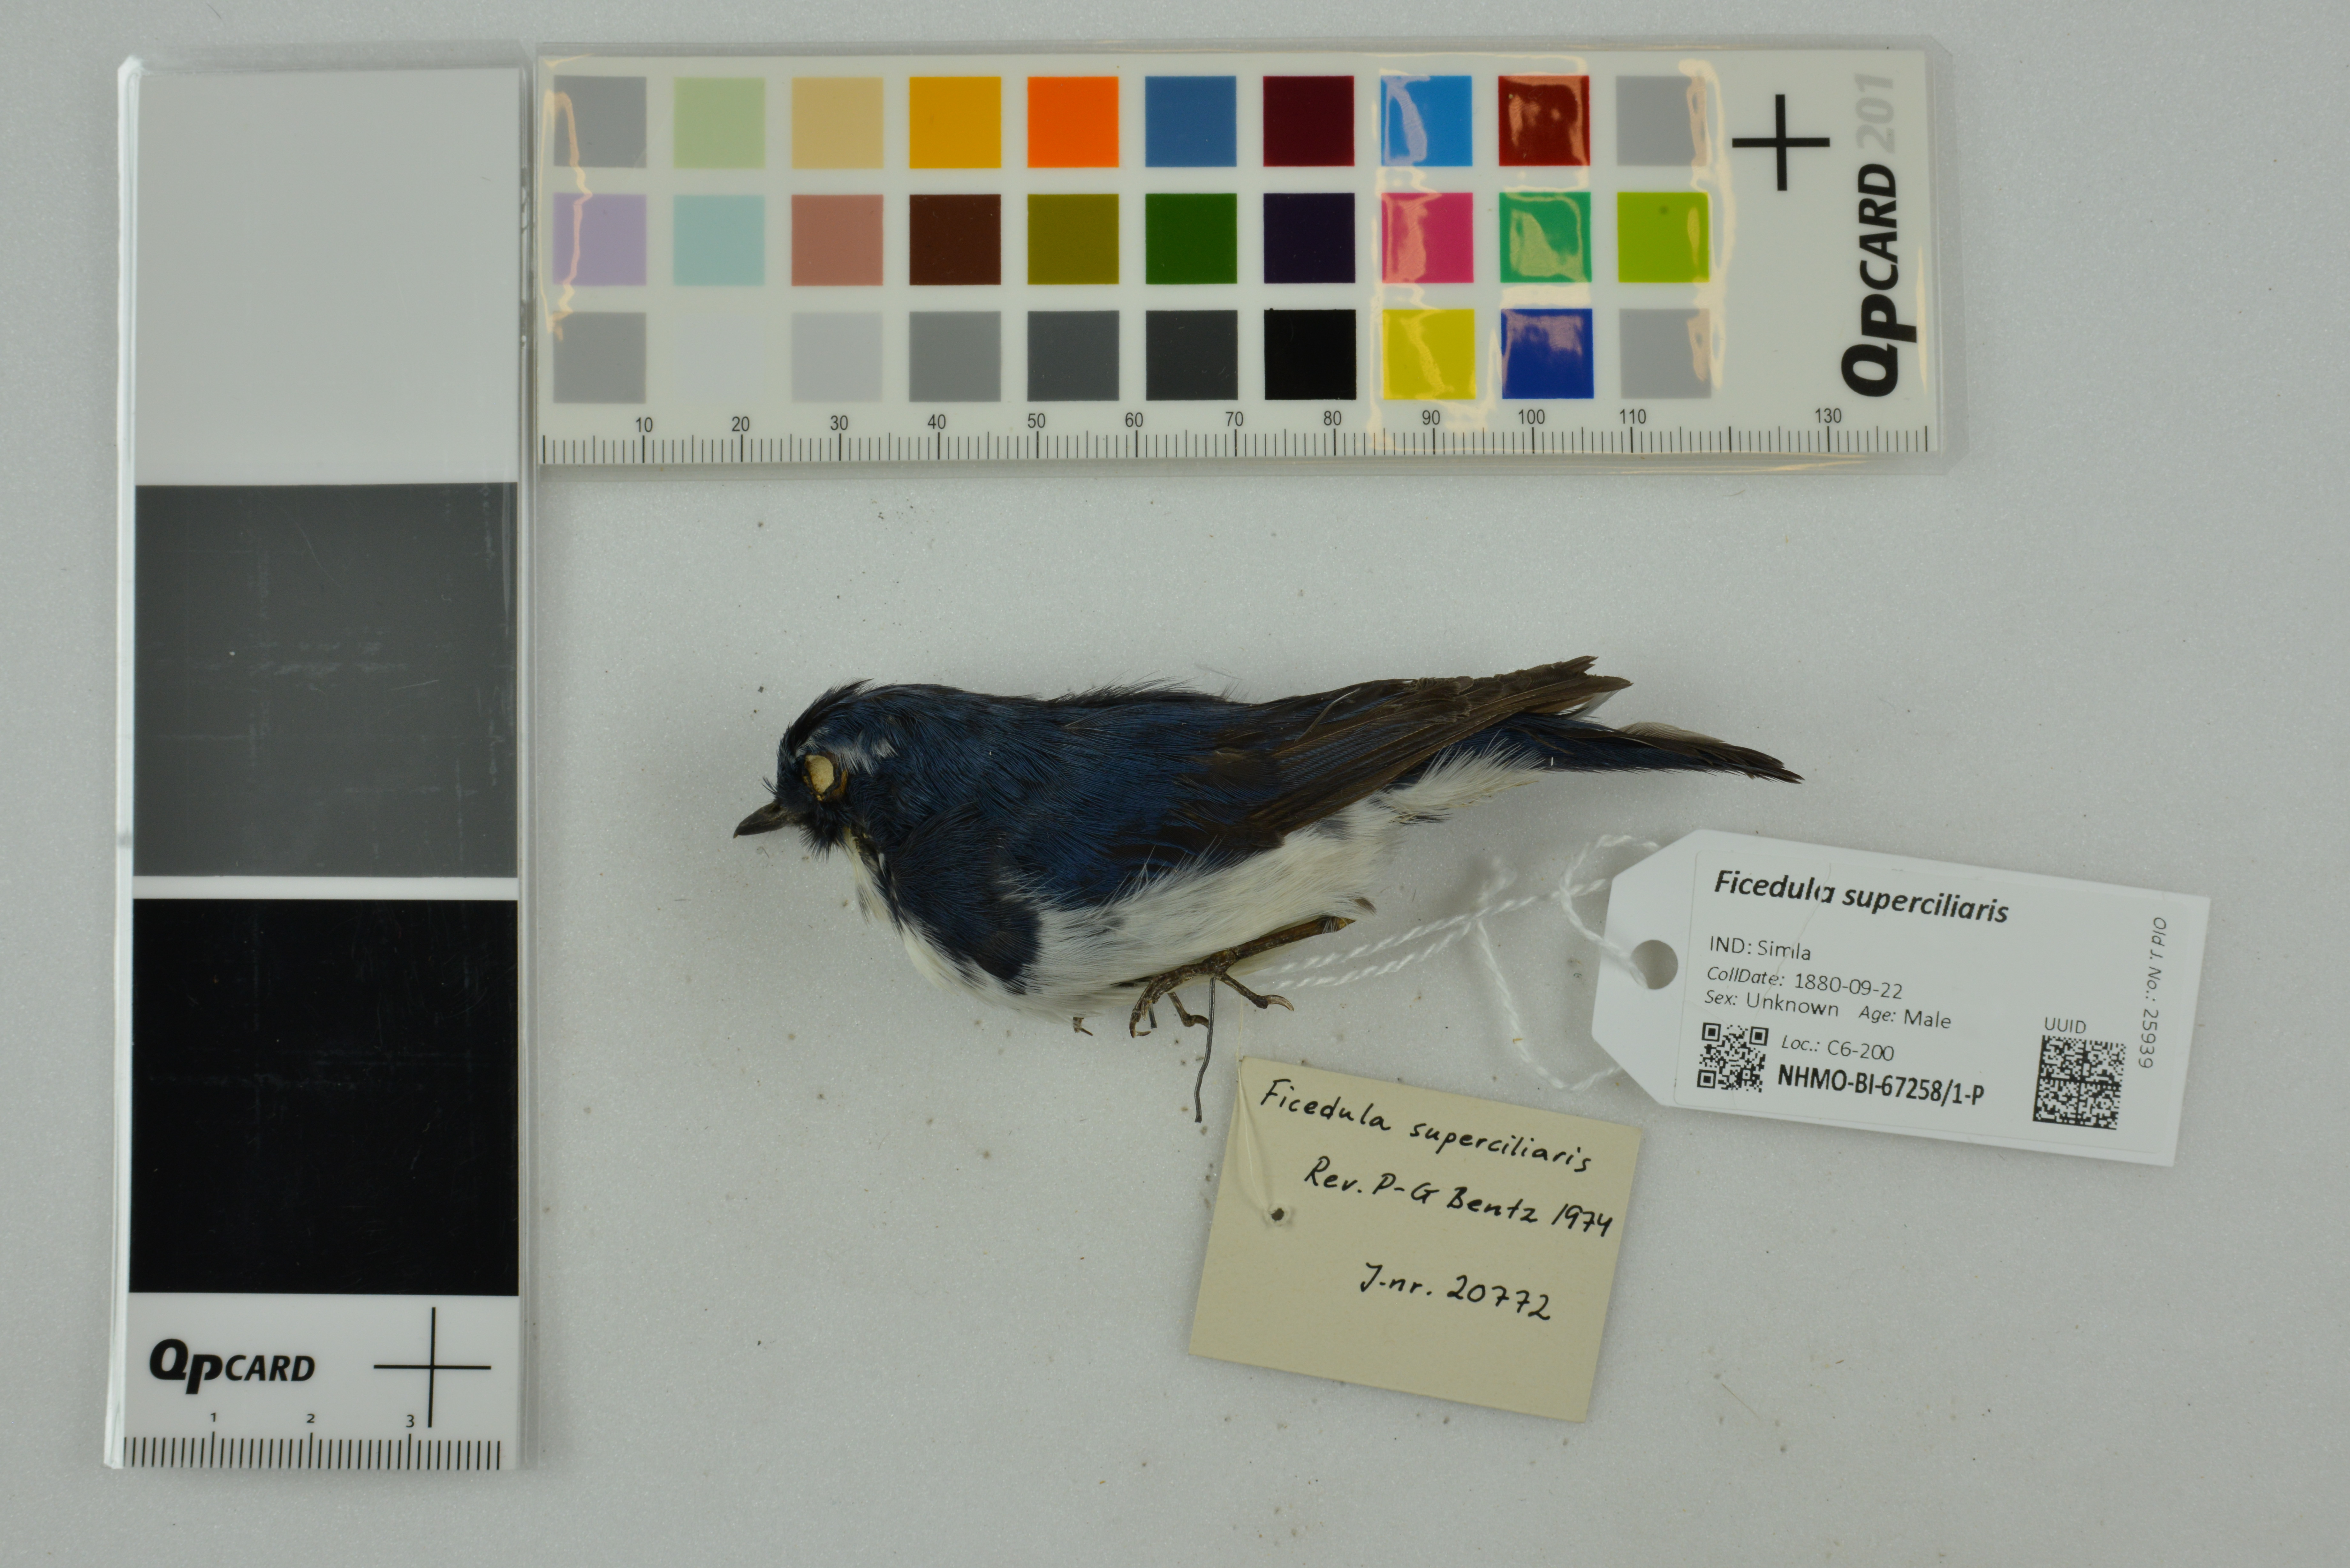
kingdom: Animalia
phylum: Chordata
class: Aves
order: Passeriformes
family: Muscicapidae
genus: Ficedula
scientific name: Ficedula superciliaris
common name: Ultramarine flycatcher
